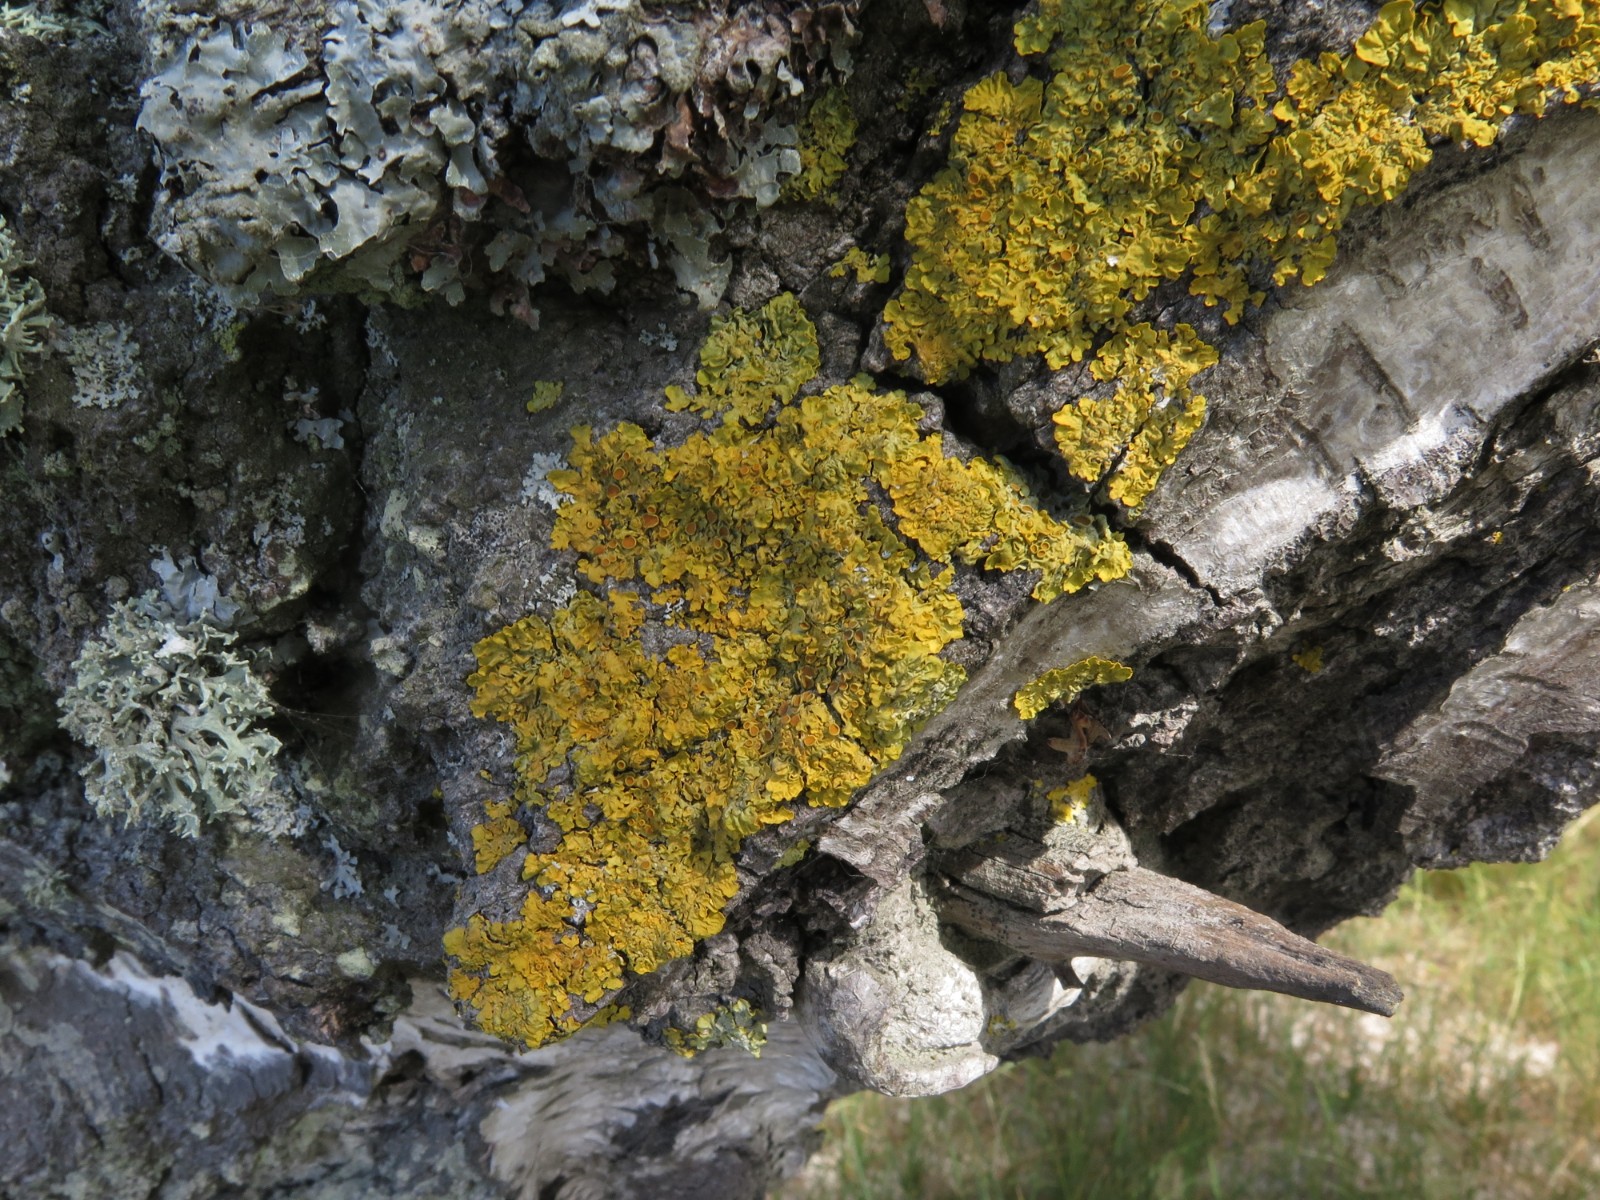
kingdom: Fungi
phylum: Ascomycota
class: Lecanoromycetes
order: Teloschistales
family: Teloschistaceae
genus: Xanthoria
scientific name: Xanthoria parietina
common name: almindelig væggelav
